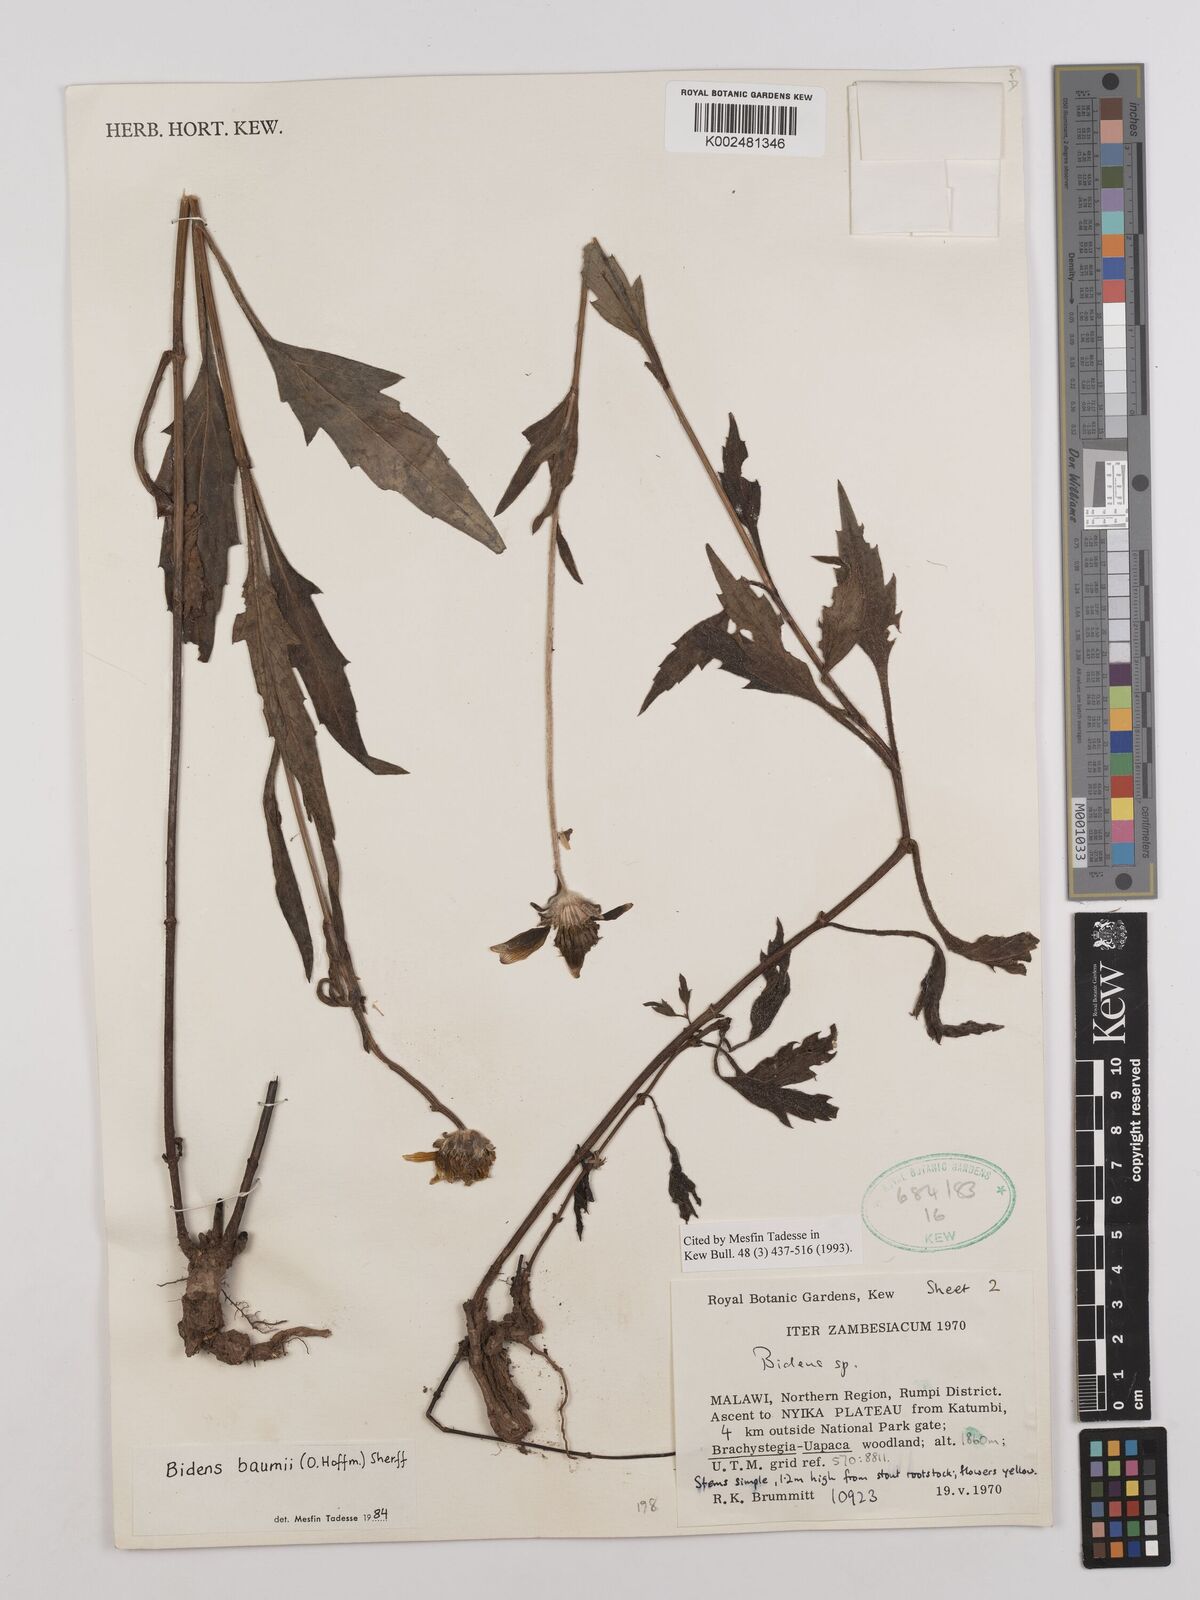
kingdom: Plantae
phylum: Tracheophyta
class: Magnoliopsida
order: Asterales
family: Asteraceae
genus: Bidens
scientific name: Bidens baumii
